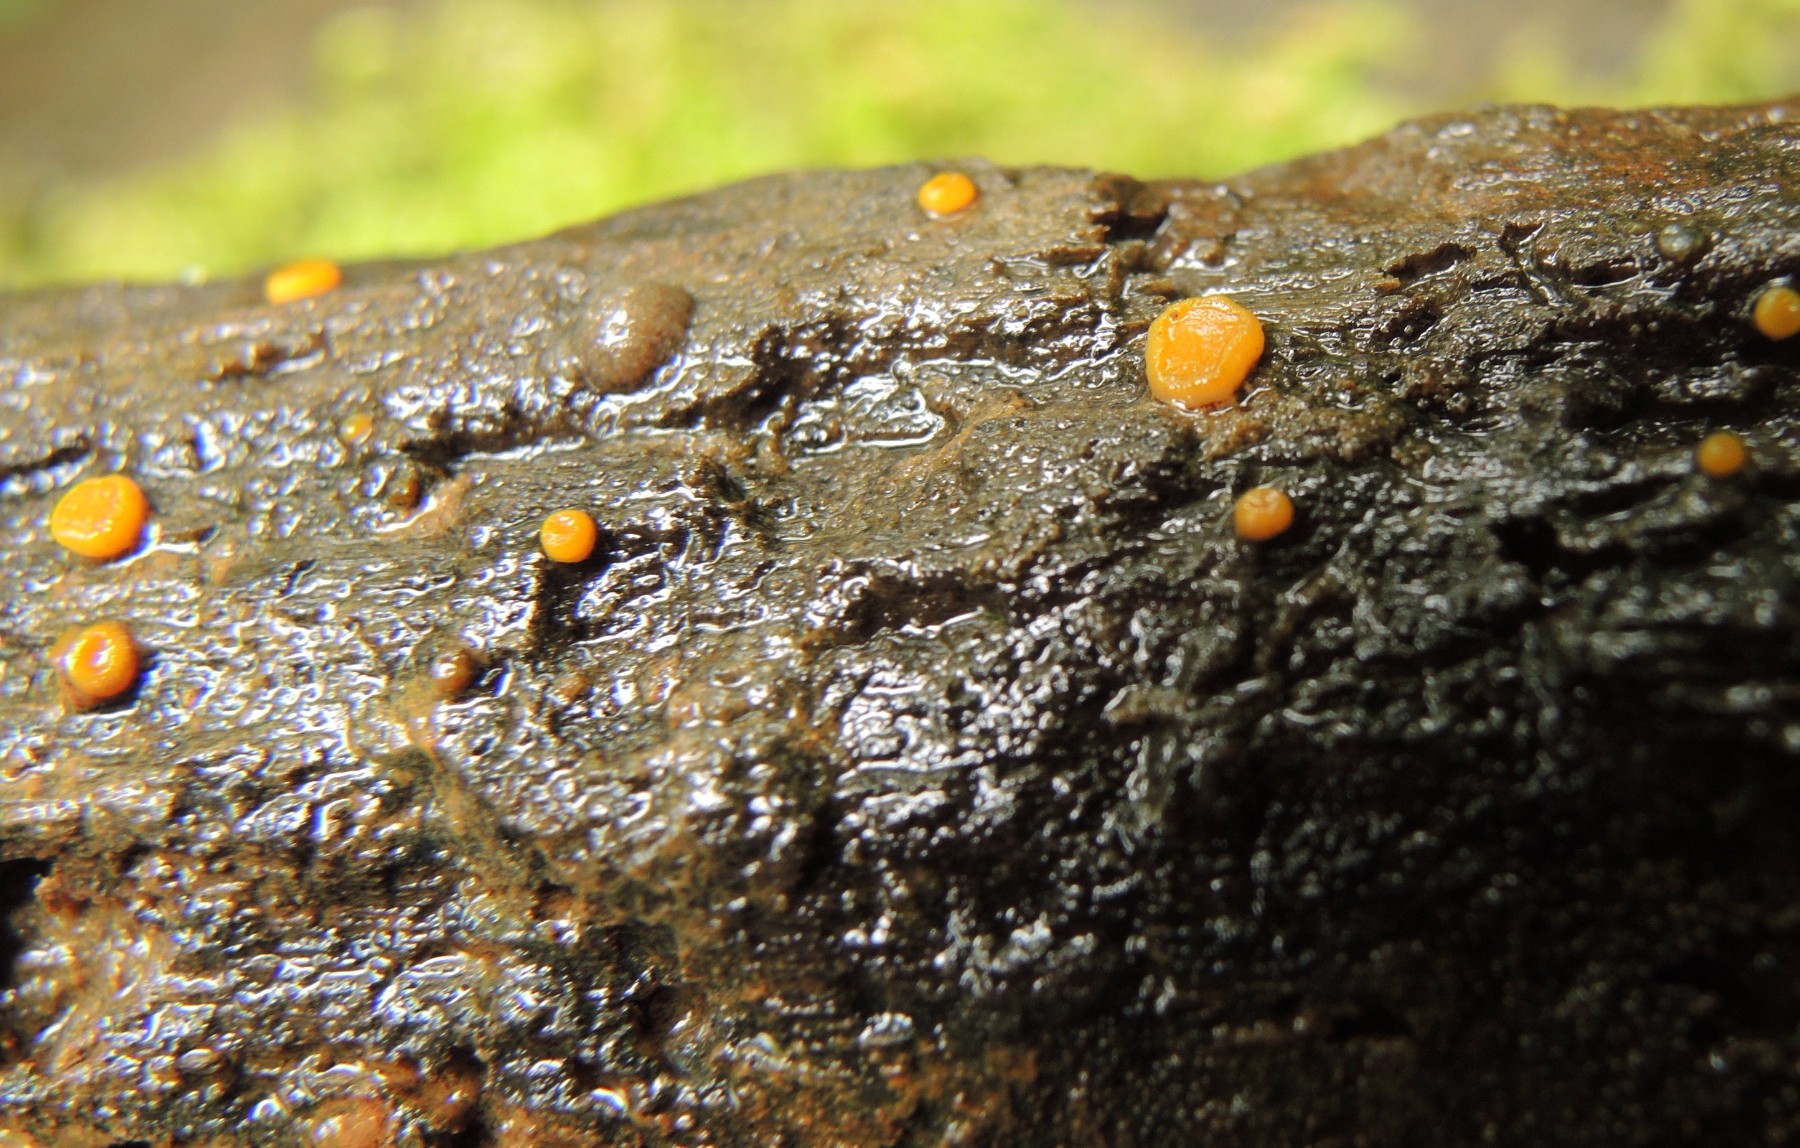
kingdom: Fungi
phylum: Ascomycota
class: Pezizomycetes
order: Pezizales
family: Pyronemataceae
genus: Miladina
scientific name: Miladina lecithina
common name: vandbæger
